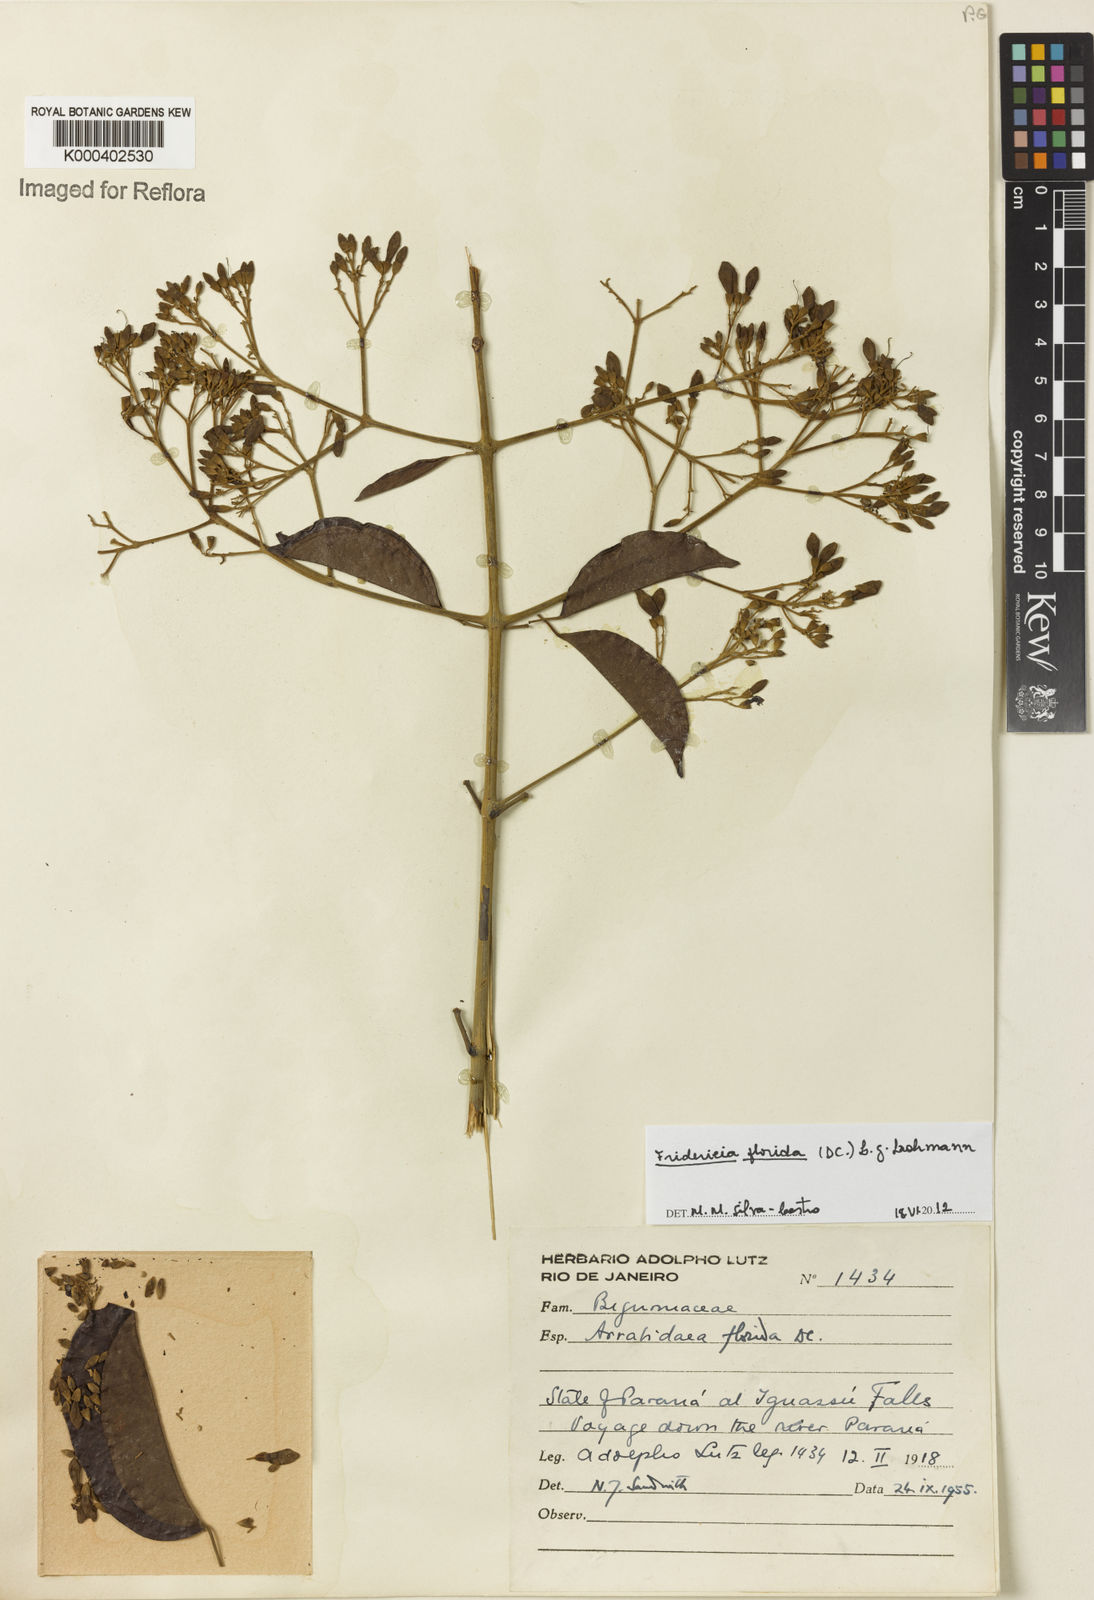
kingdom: Plantae
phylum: Tracheophyta
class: Magnoliopsida
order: Lamiales
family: Bignoniaceae
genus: Fridericia
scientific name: Fridericia florida
